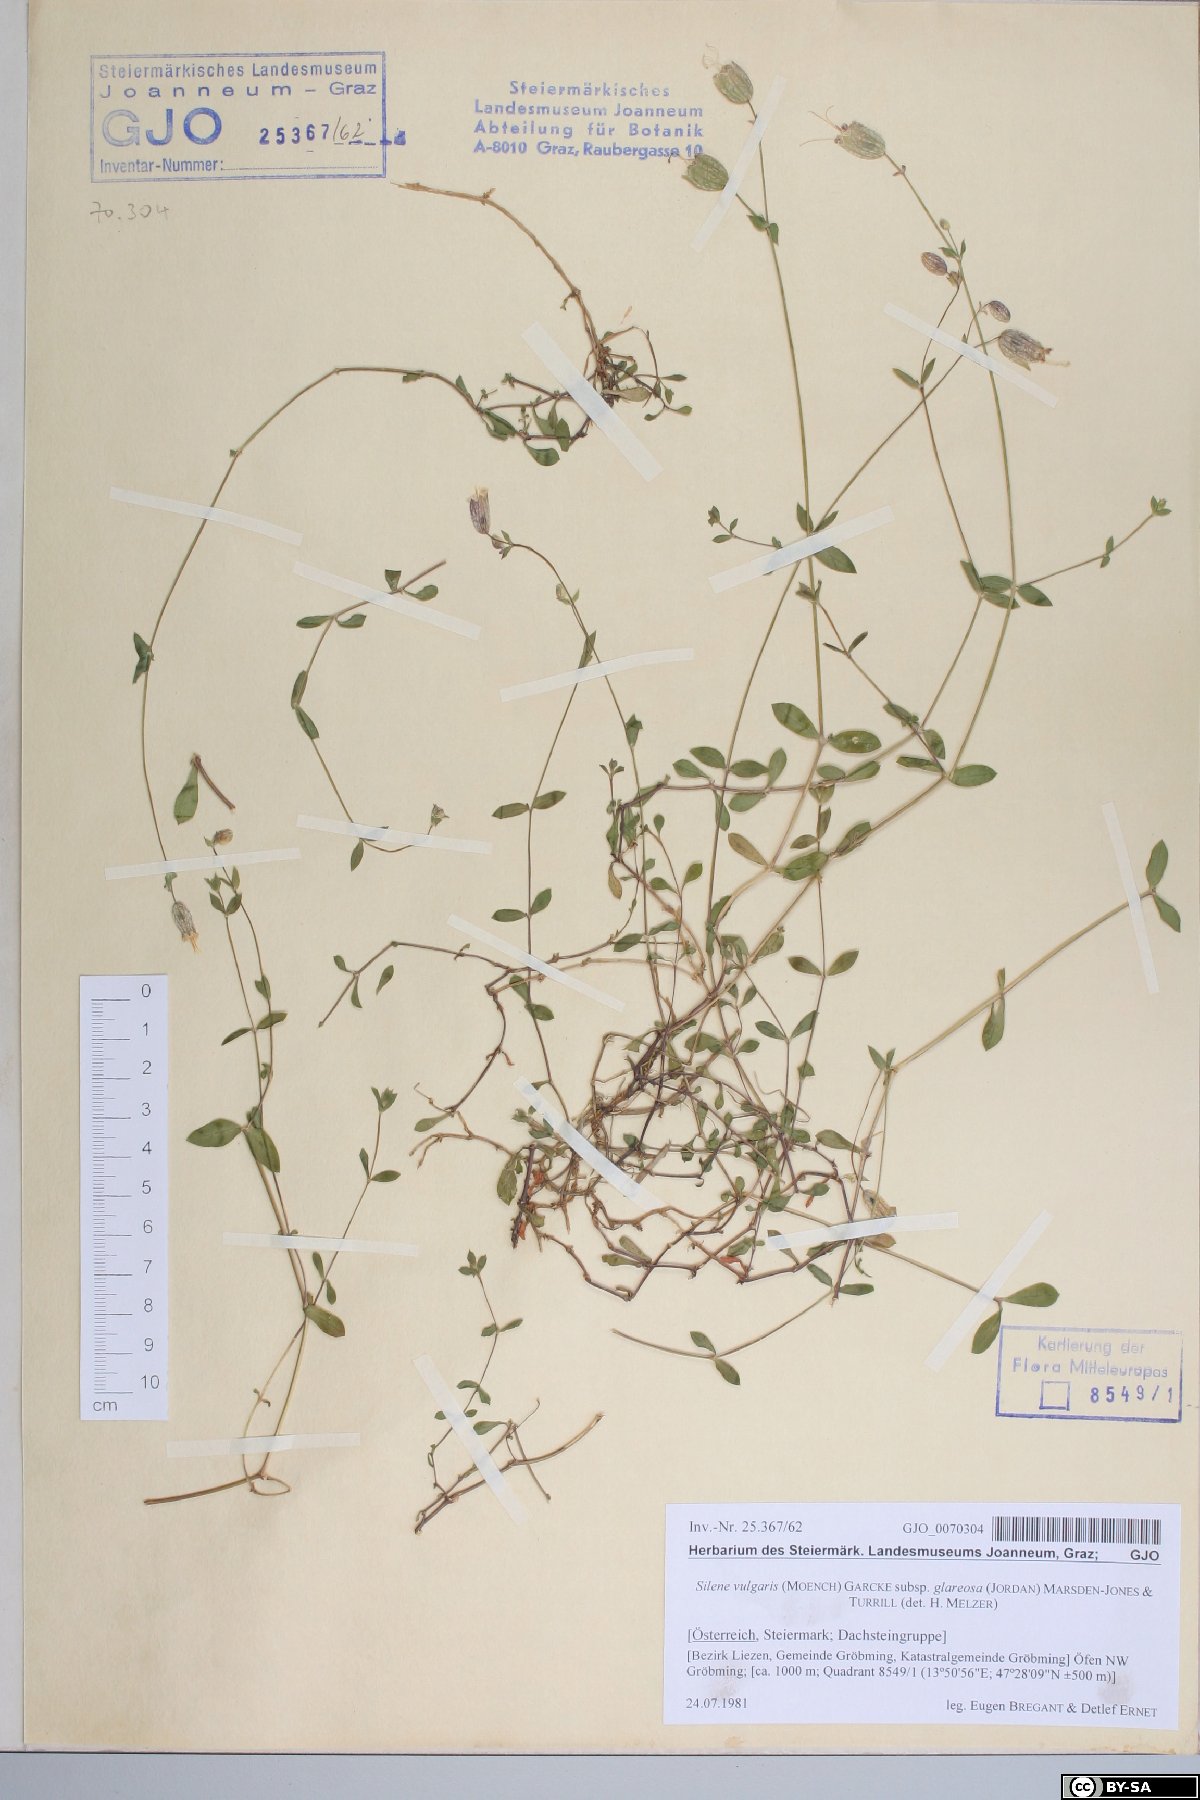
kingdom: Plantae
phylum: Tracheophyta
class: Magnoliopsida
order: Caryophyllales
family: Caryophyllaceae
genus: Silene
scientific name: Silene glareosa
